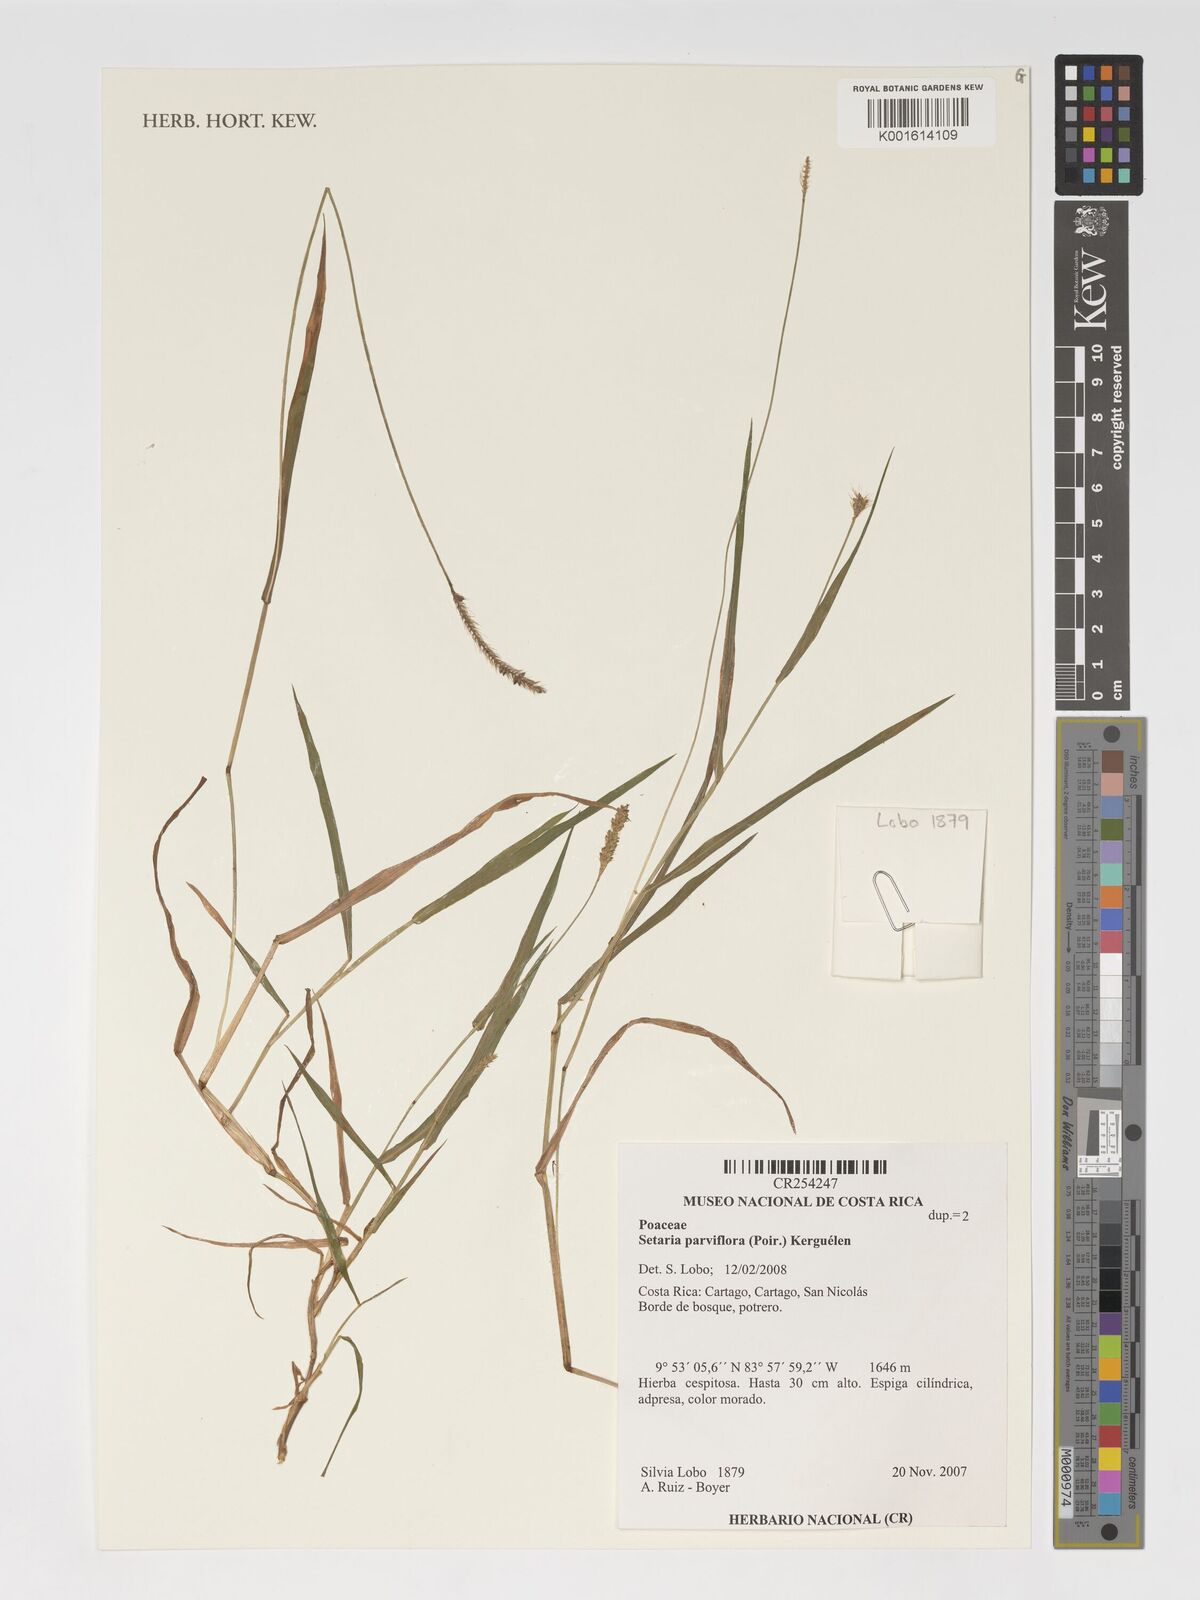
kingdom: Plantae
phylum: Tracheophyta
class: Liliopsida
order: Poales
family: Poaceae
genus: Setaria
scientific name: Setaria parviflora
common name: Knotroot bristle-grass
